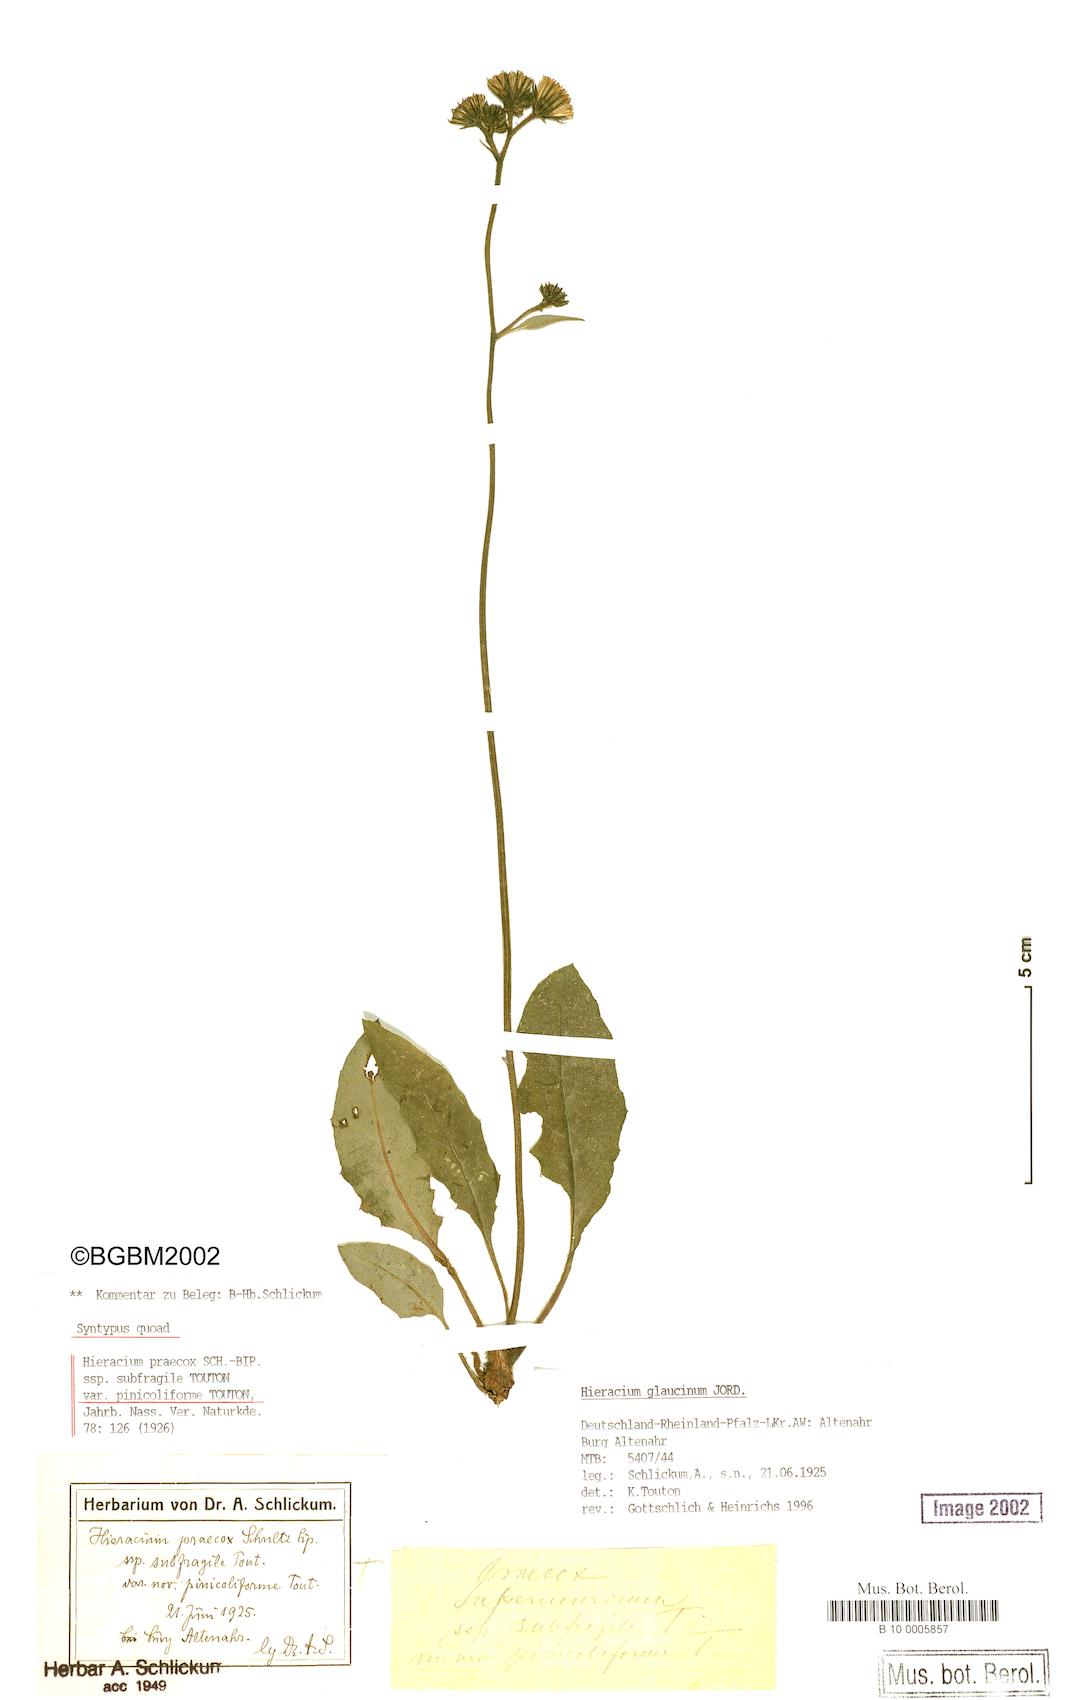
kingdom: Plantae
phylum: Tracheophyta
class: Magnoliopsida
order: Asterales
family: Asteraceae
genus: Hieracium
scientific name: Hieracium glaucinum
